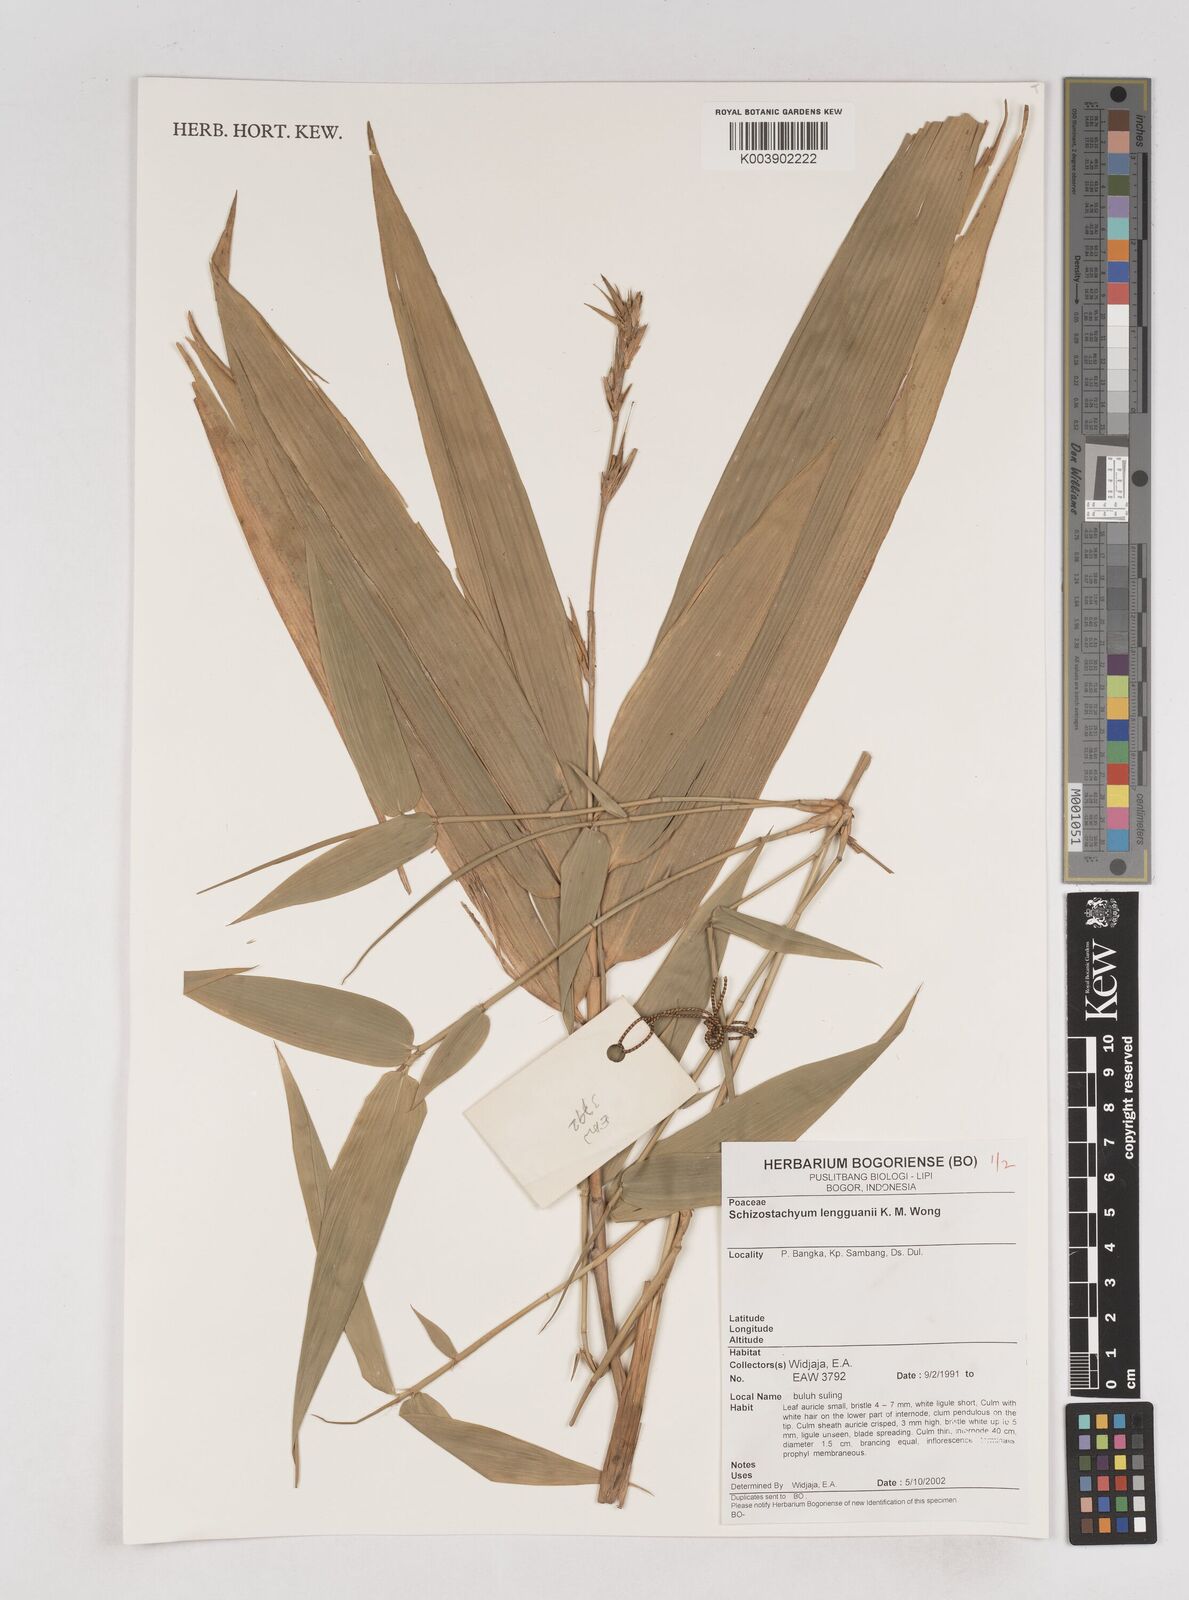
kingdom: Plantae
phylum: Tracheophyta
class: Liliopsida
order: Poales
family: Poaceae
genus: Schizostachyum
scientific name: Schizostachyum lengguanii
